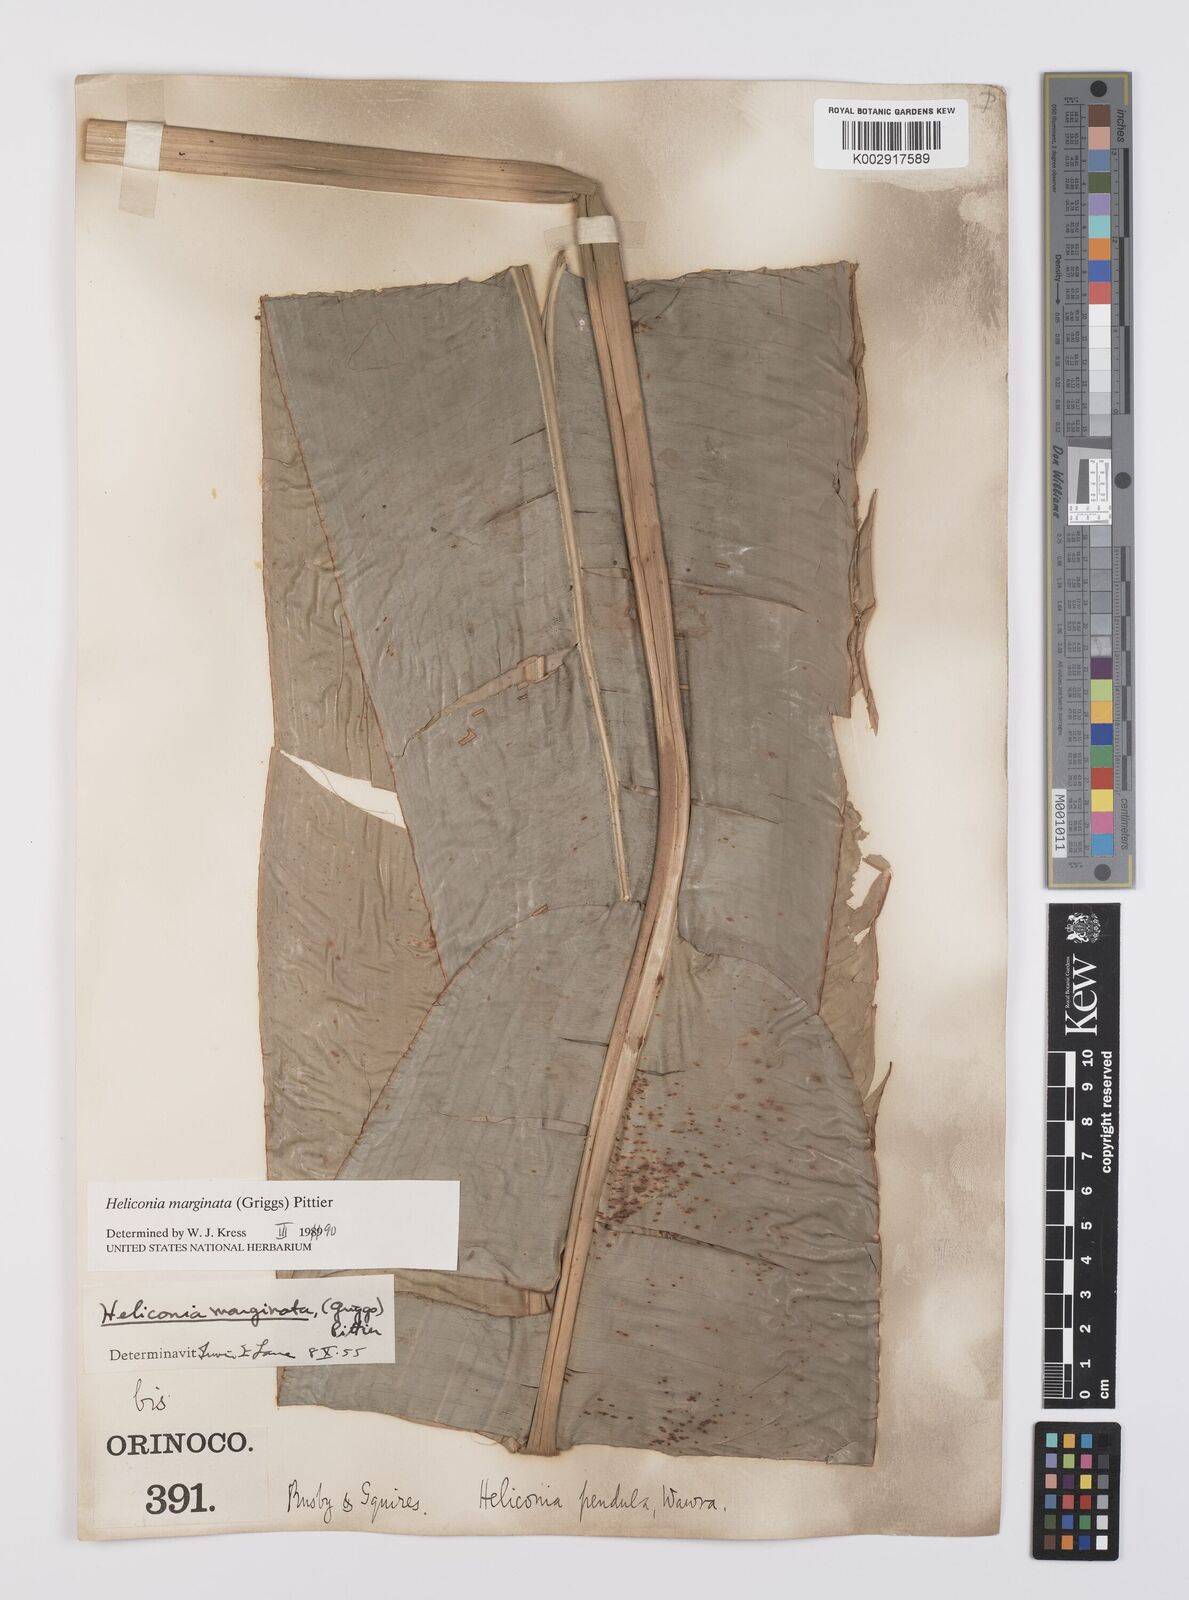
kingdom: Plantae
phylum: Tracheophyta
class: Liliopsida
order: Zingiberales
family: Heliconiaceae
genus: Heliconia
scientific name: Heliconia marginata
